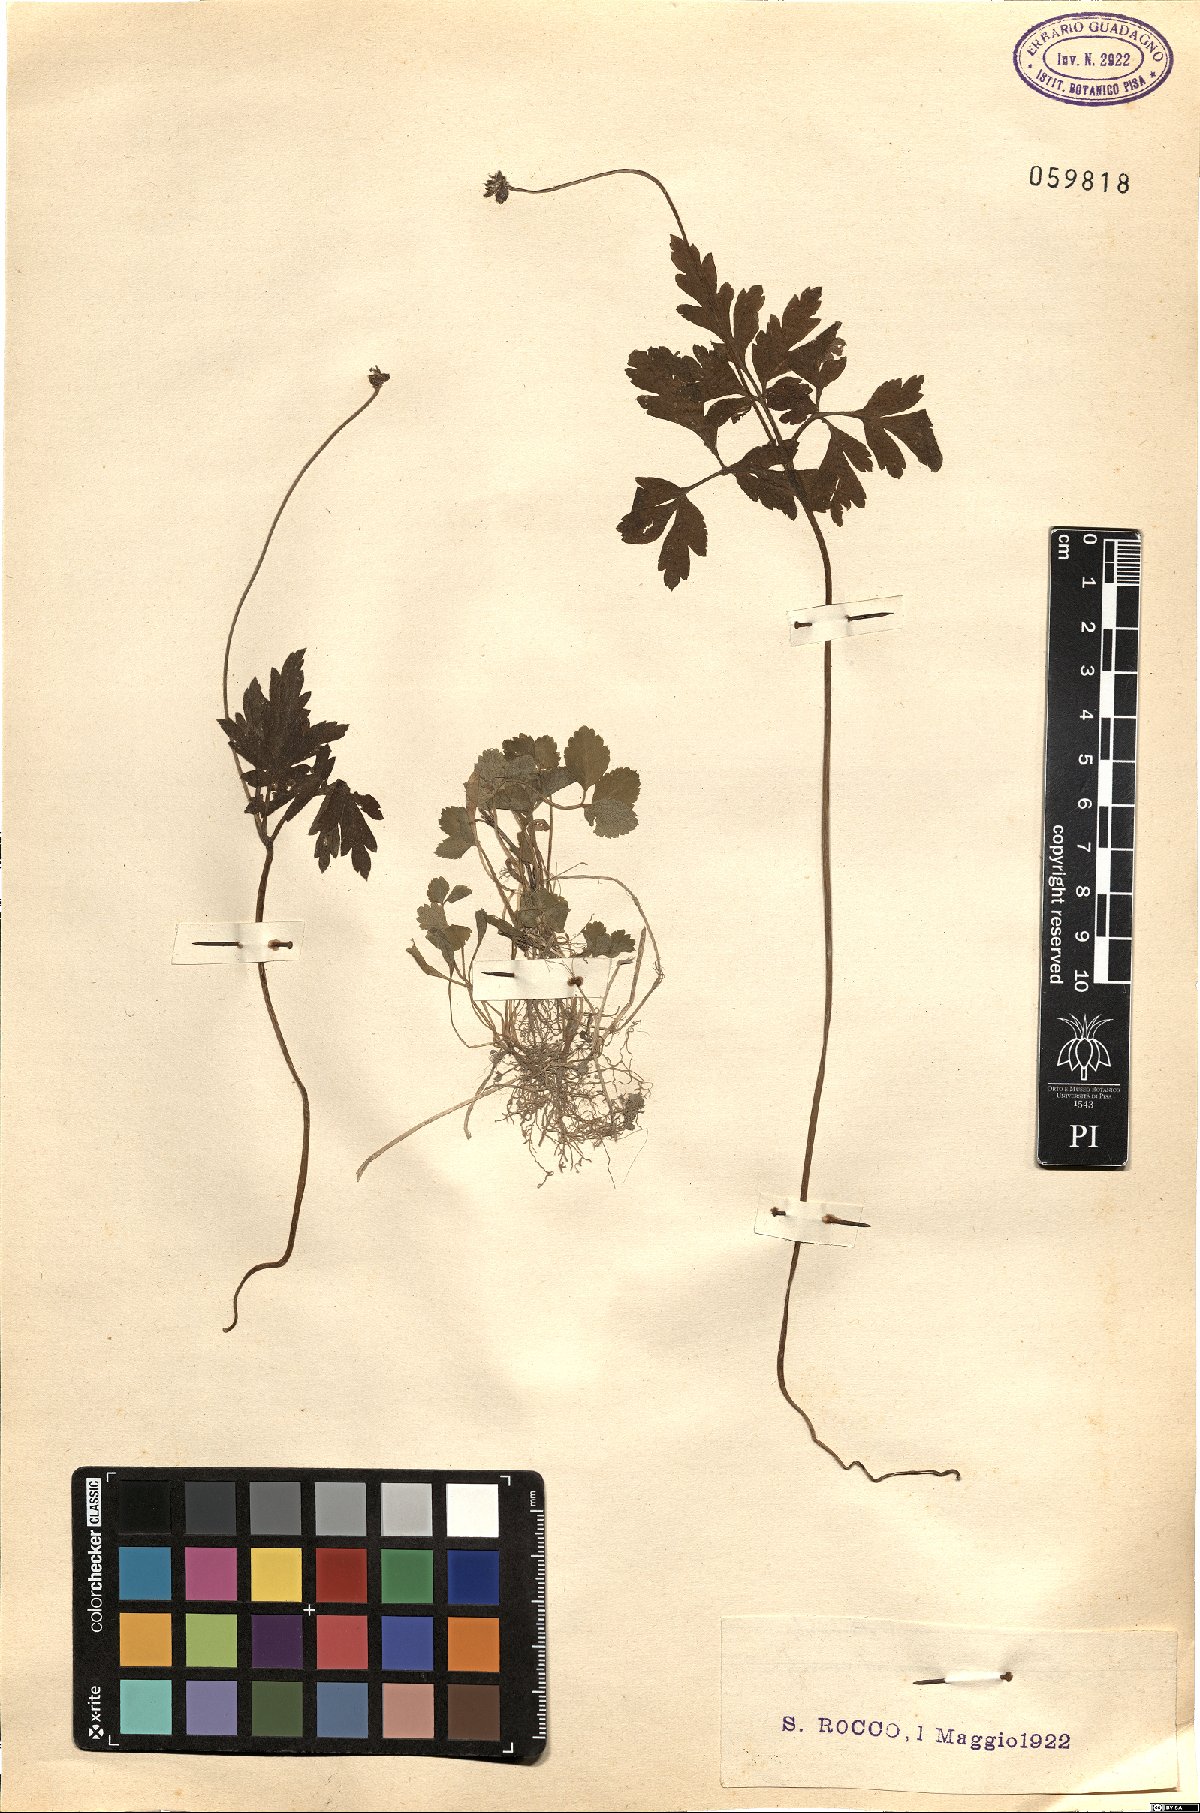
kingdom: Plantae
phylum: Tracheophyta
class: Magnoliopsida
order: Ranunculales
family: Ranunculaceae
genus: Anemone
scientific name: Anemone apennina
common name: Blue anemone
